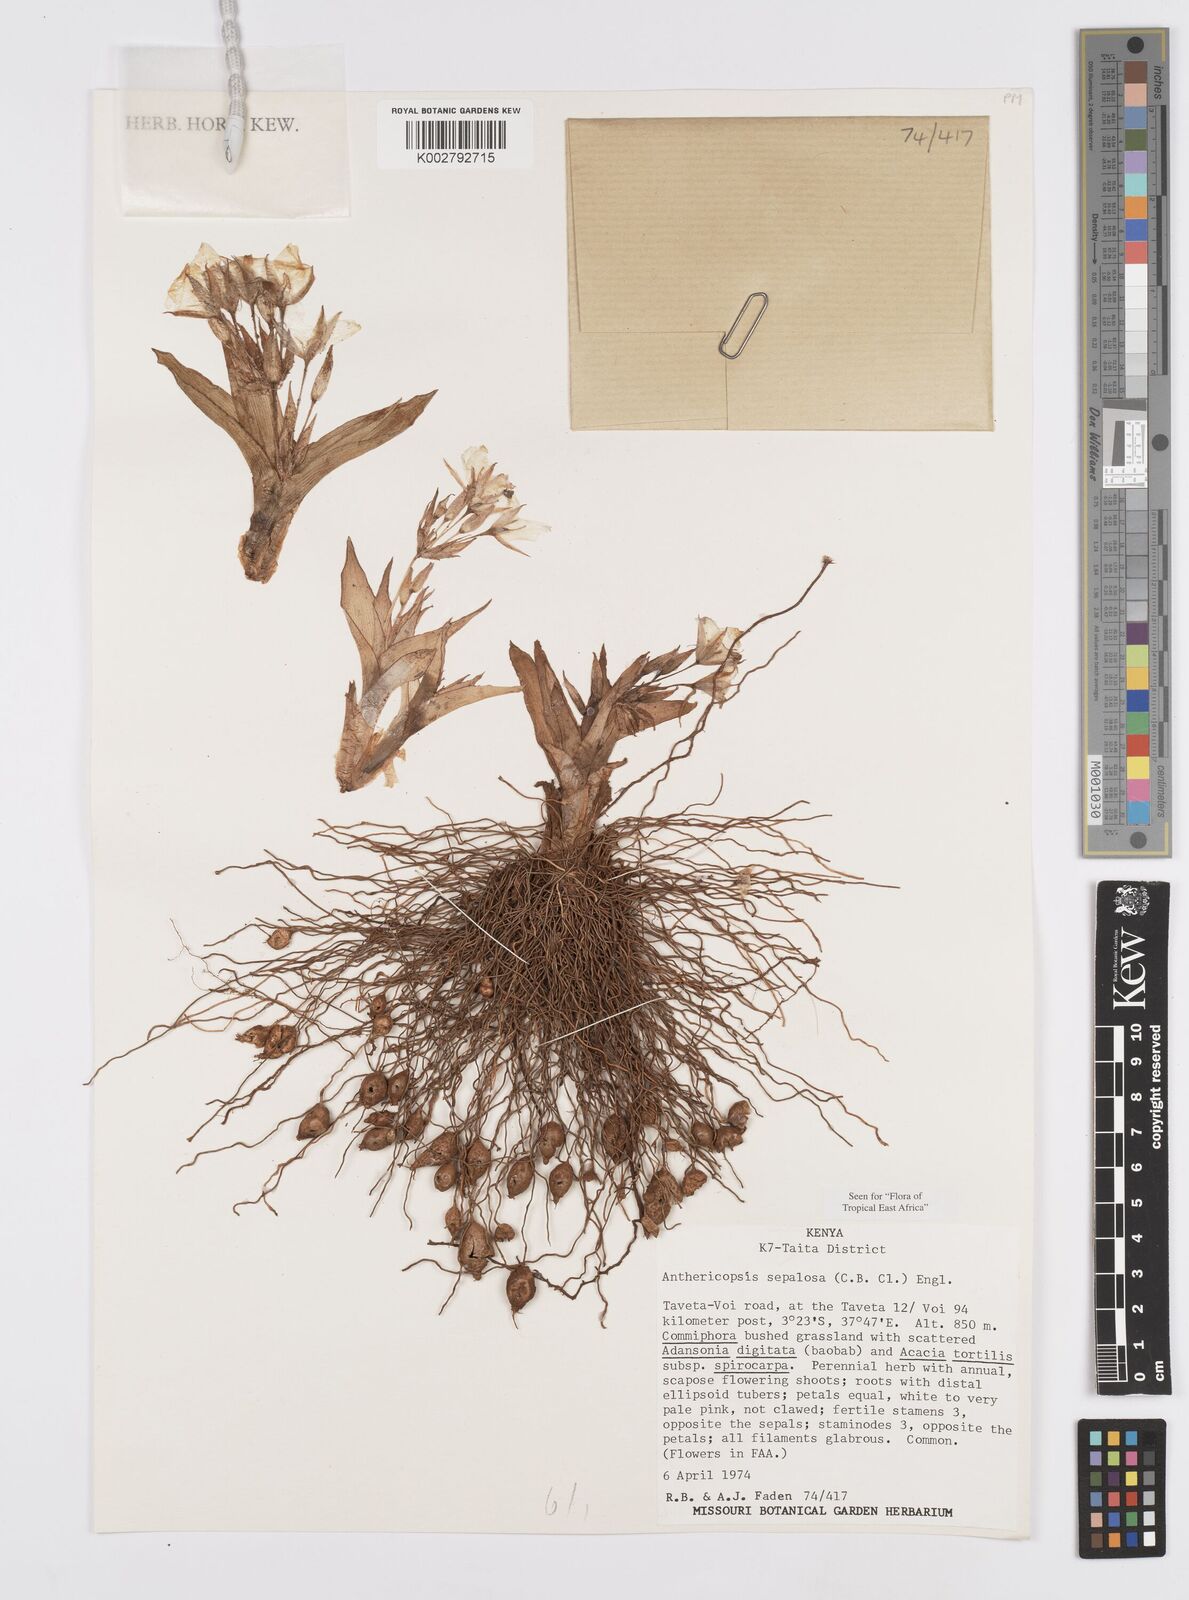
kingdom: Plantae
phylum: Tracheophyta
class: Liliopsida
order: Commelinales
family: Commelinaceae
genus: Anthericopsis
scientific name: Anthericopsis sepalosa
